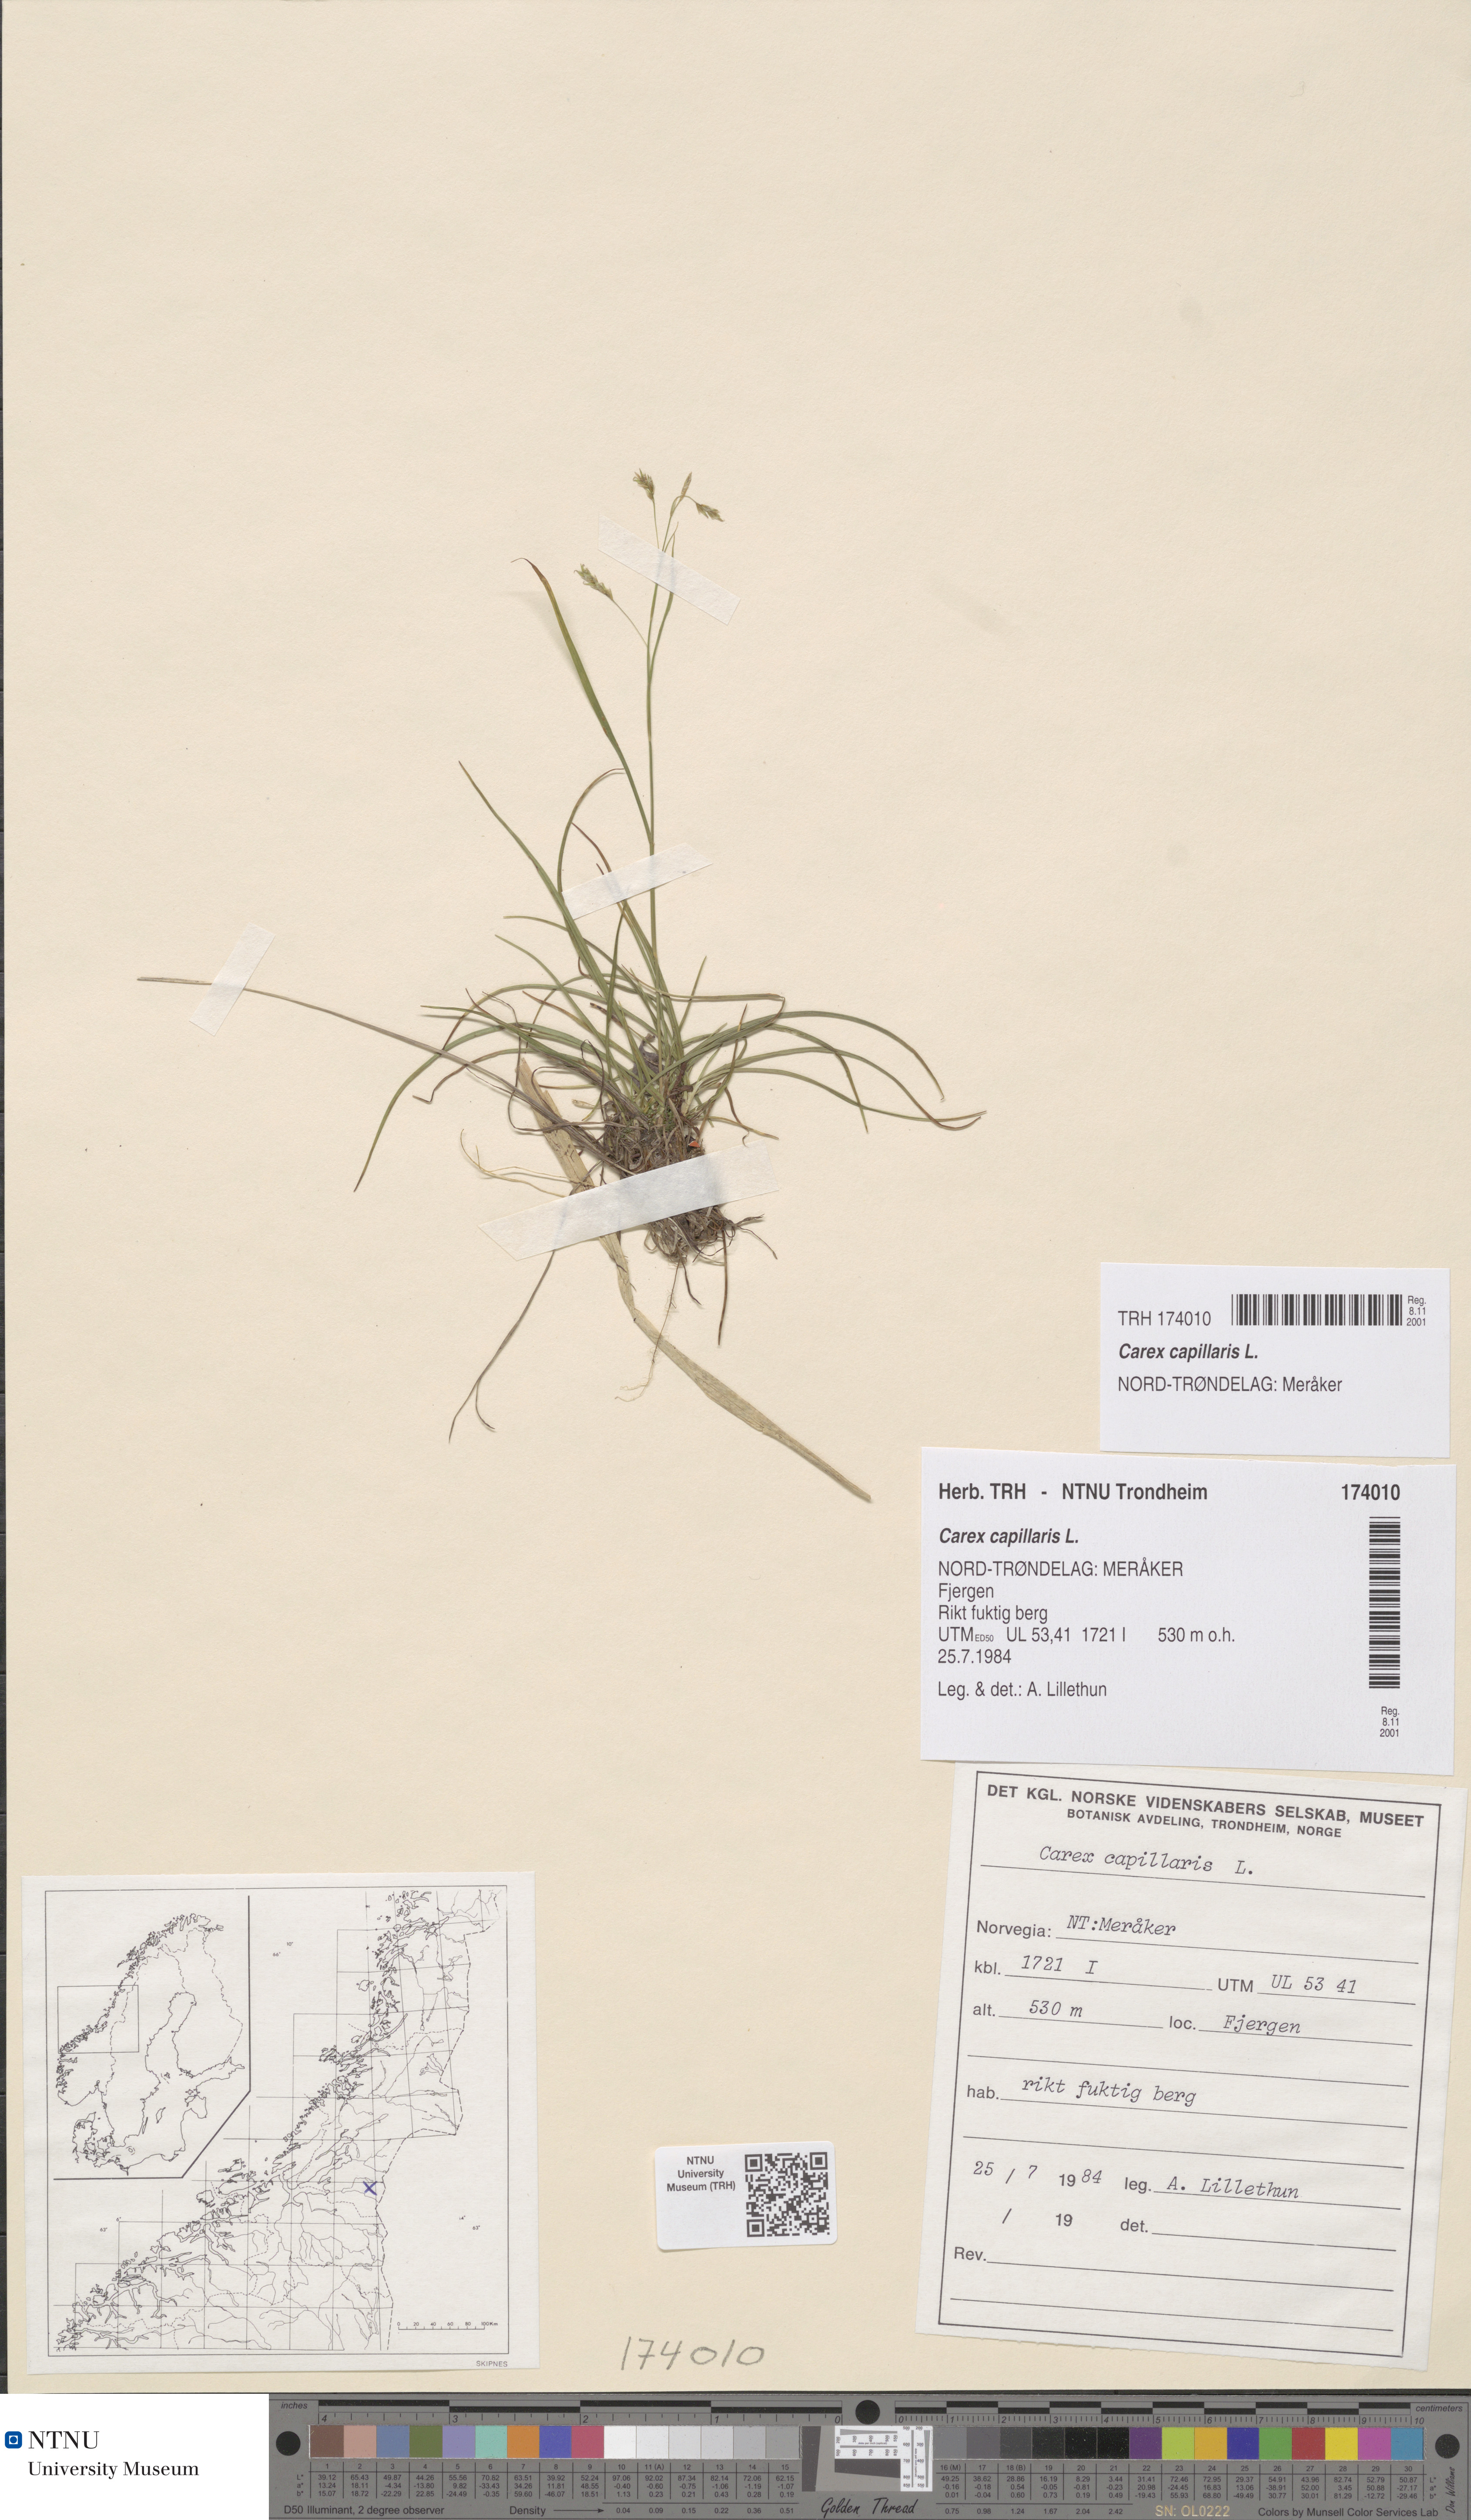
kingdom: Plantae
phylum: Tracheophyta
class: Liliopsida
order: Poales
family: Cyperaceae
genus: Carex
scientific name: Carex capillaris
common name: Hair sedge
